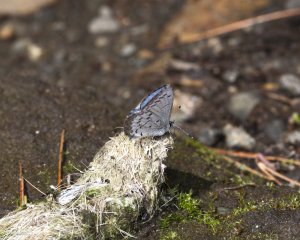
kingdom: Animalia
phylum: Arthropoda
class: Insecta
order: Lepidoptera
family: Lycaenidae
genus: Celastrina
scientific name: Celastrina lucia
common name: Northern Spring Azure
